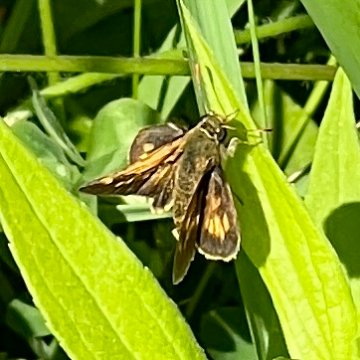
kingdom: Animalia
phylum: Arthropoda
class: Insecta
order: Lepidoptera
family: Hesperiidae
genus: Polites
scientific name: Polites coras
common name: Peck's Skipper
